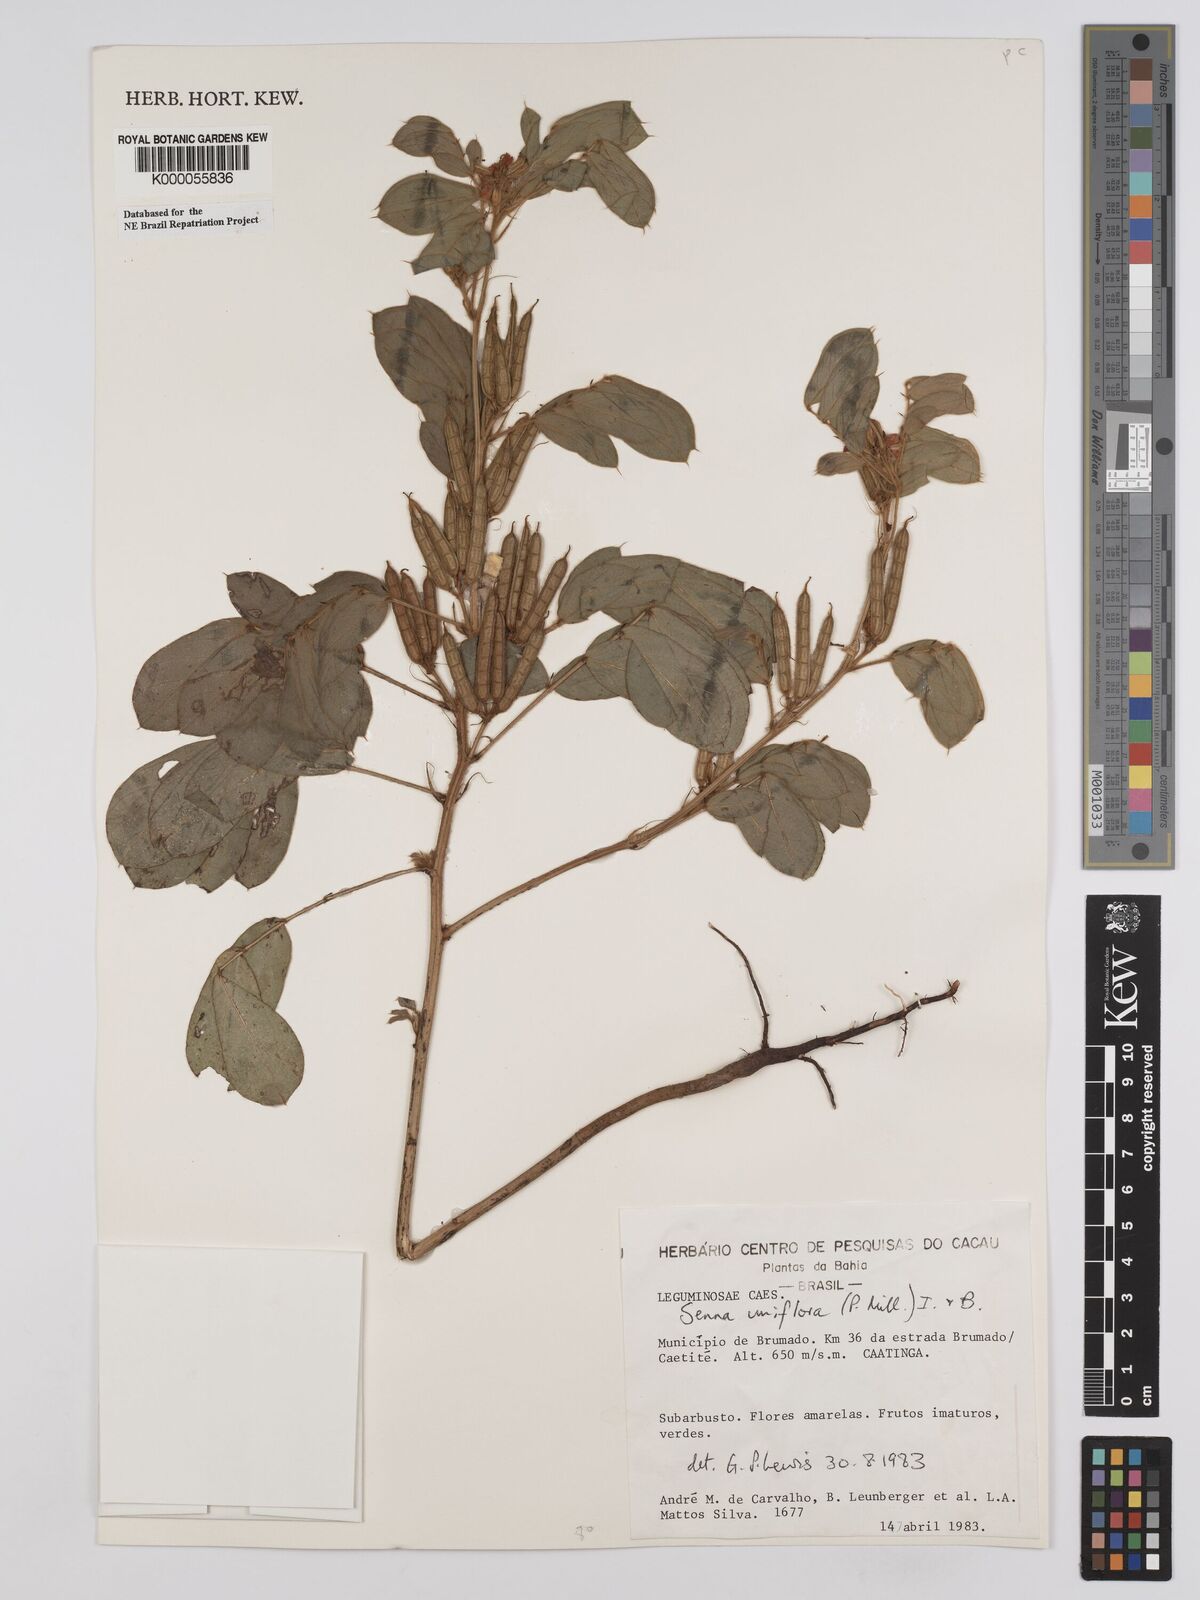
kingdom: Plantae
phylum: Tracheophyta
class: Magnoliopsida
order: Fabales
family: Fabaceae
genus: Senna
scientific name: Senna uniflora
